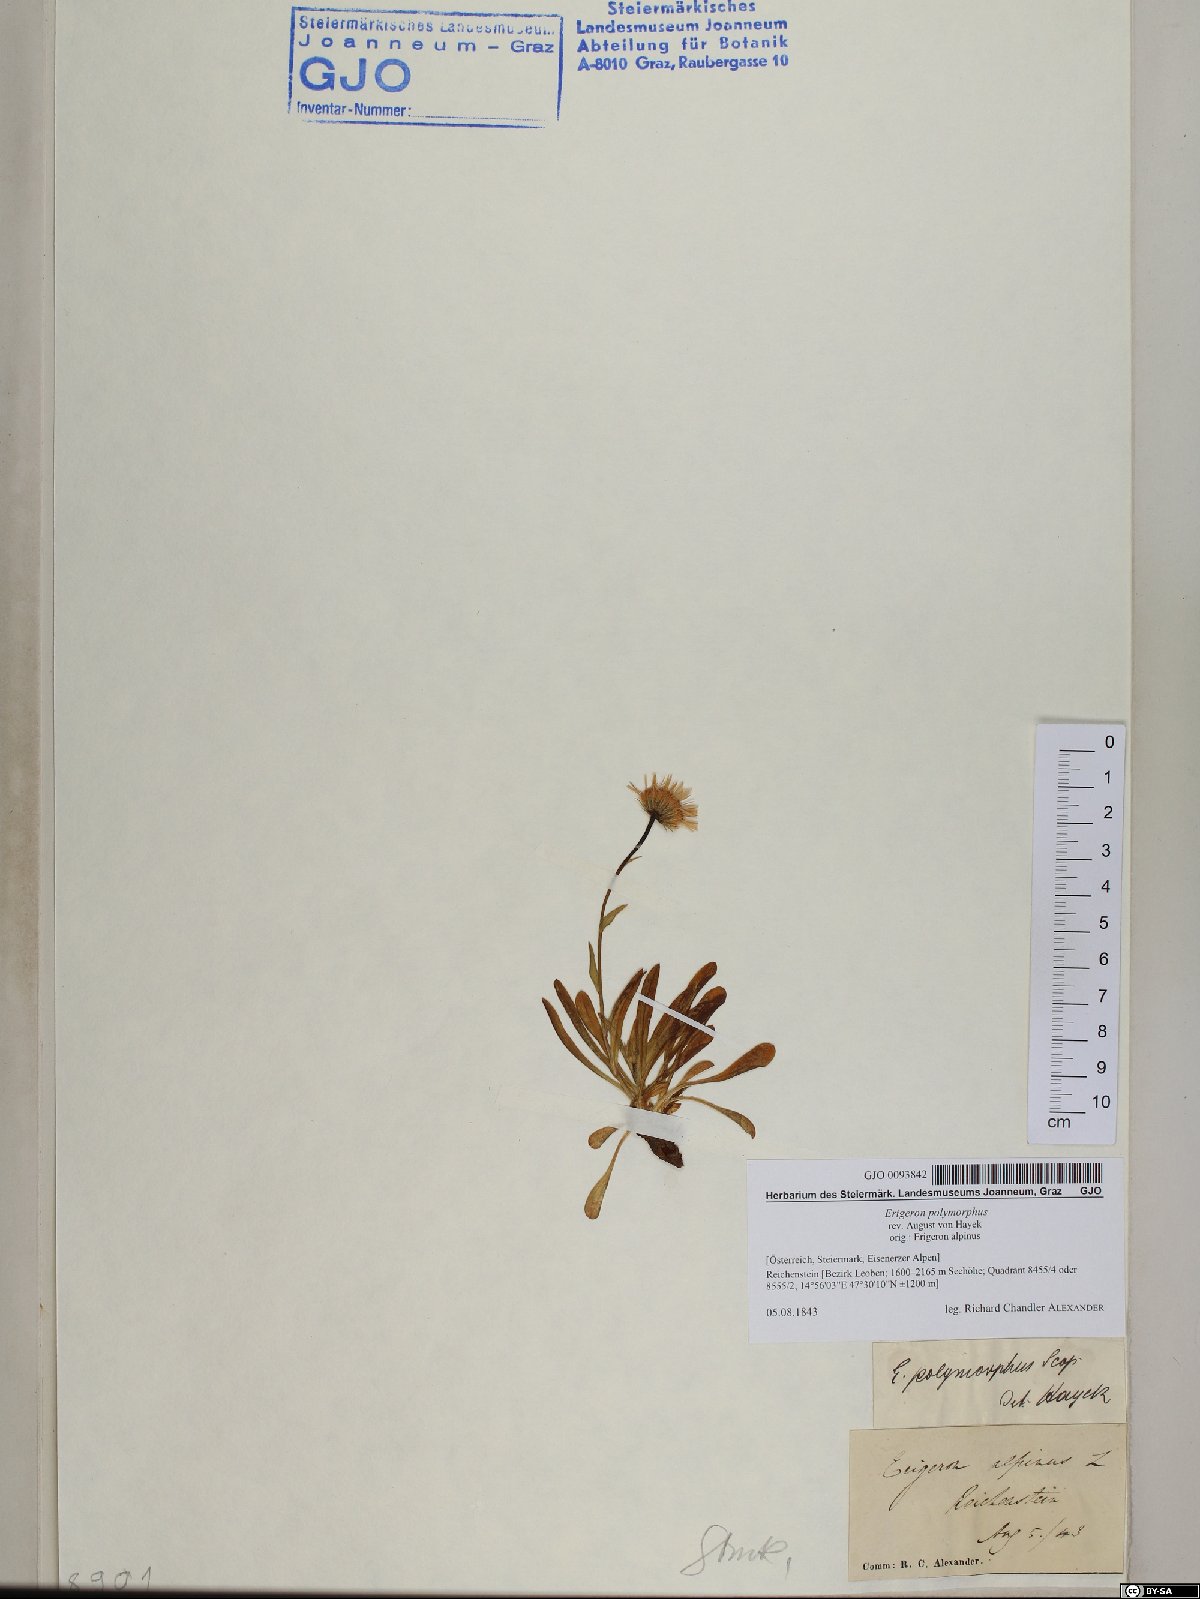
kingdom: Plantae
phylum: Tracheophyta
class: Magnoliopsida
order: Asterales
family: Asteraceae
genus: Erigeron
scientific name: Erigeron alpinus
